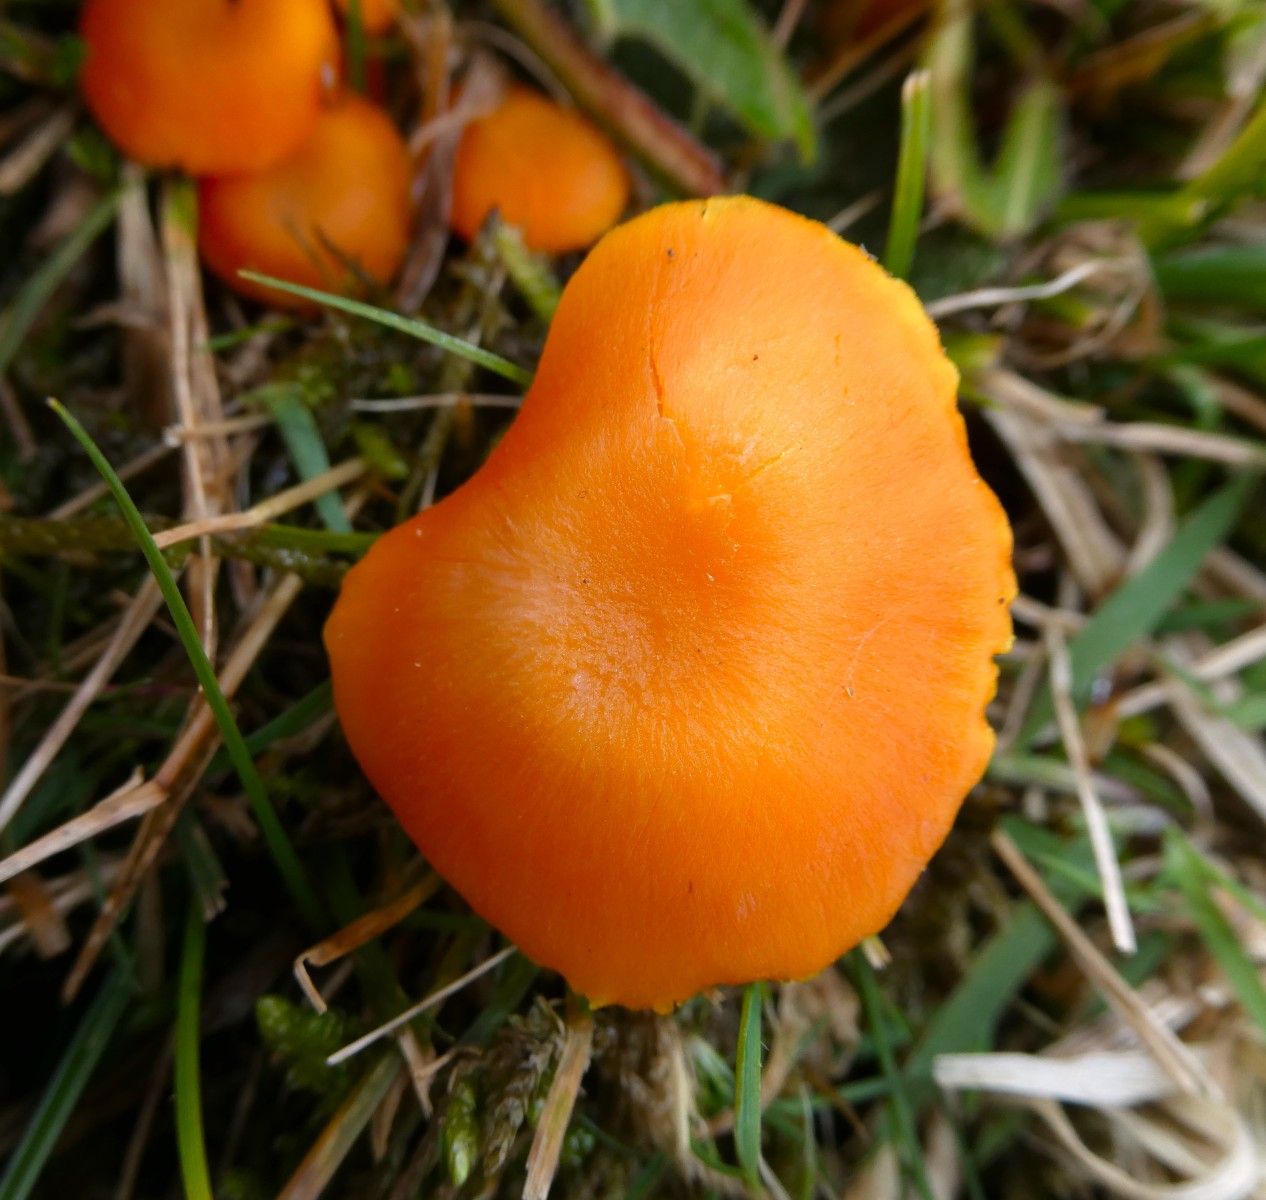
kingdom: Fungi
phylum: Basidiomycota
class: Agaricomycetes
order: Agaricales
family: Hygrophoraceae
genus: Hygrocybe
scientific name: Hygrocybe reidii
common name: honning-vokshat
